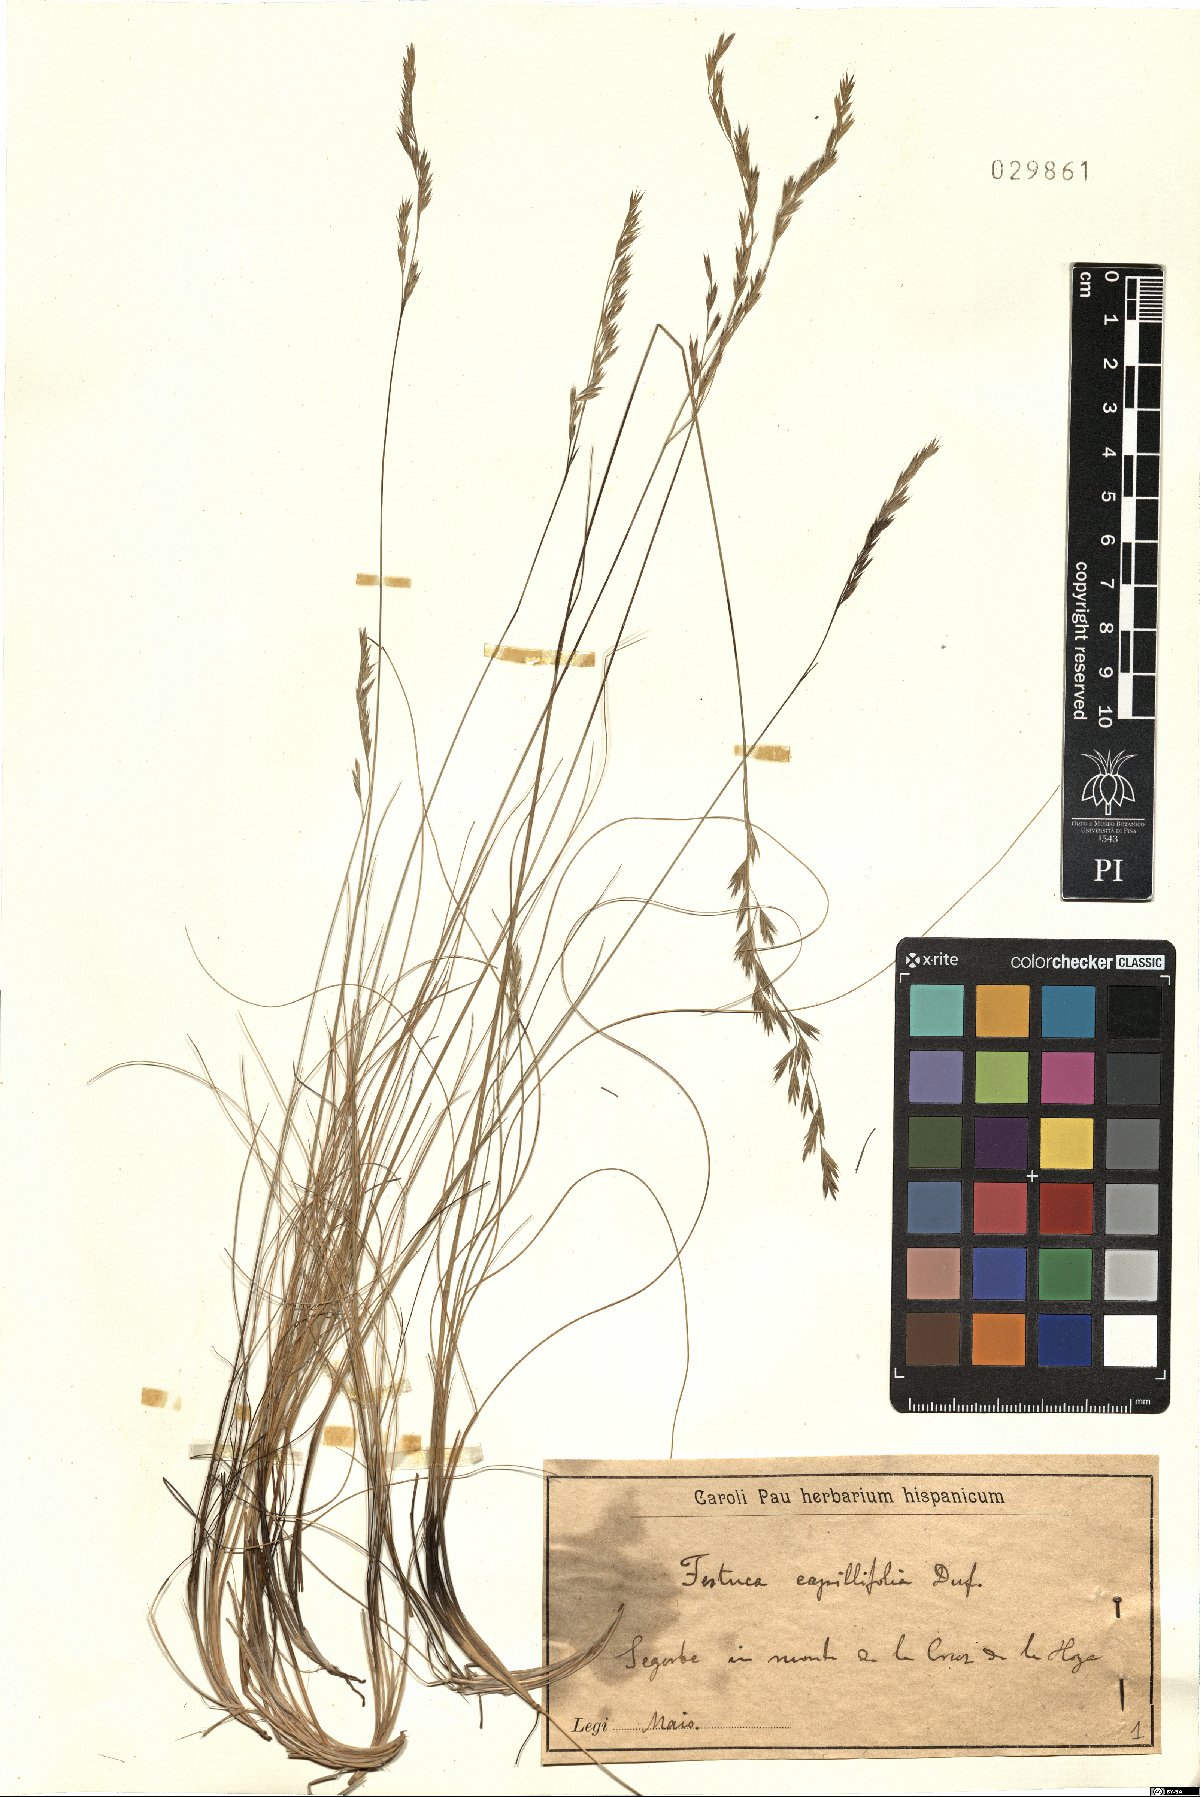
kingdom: Plantae
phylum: Tracheophyta
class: Liliopsida
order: Poales
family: Poaceae
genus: Festuca
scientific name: Festuca capillifolia
